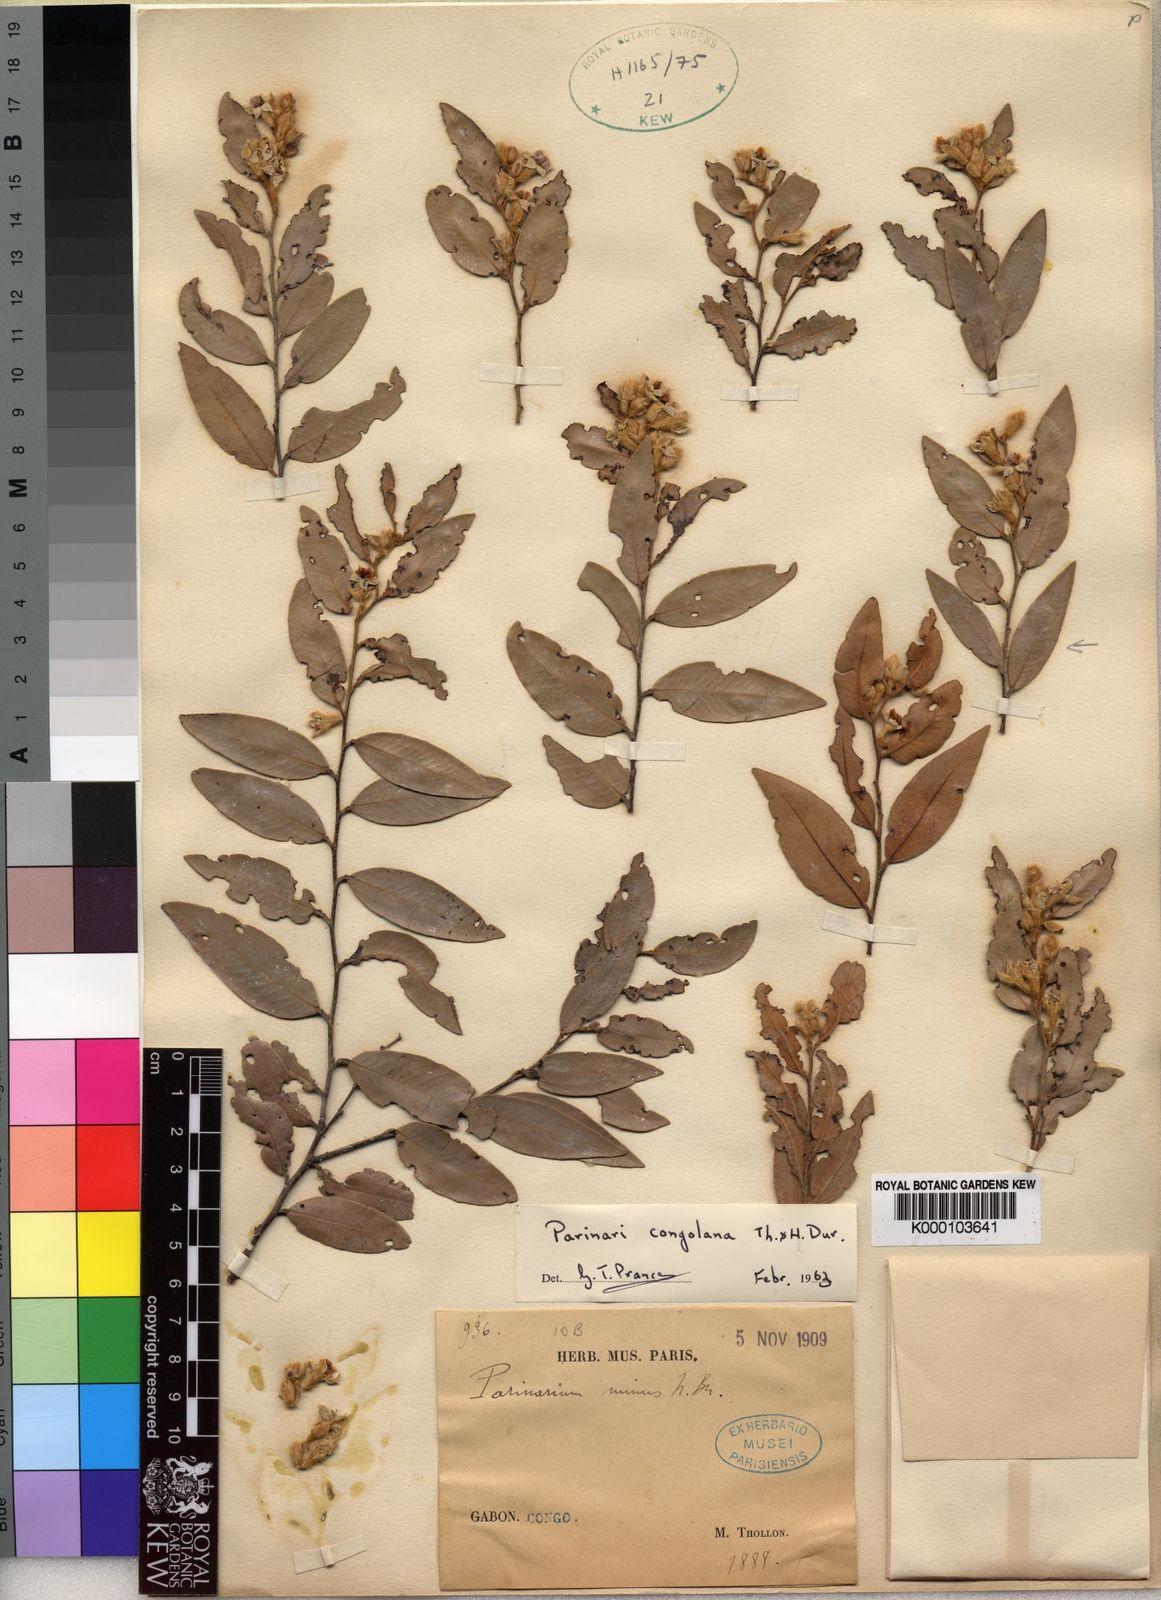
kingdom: Plantae
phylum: Tracheophyta
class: Magnoliopsida
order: Malpighiales
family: Chrysobalanaceae
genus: Parinari
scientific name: Parinari congolana
